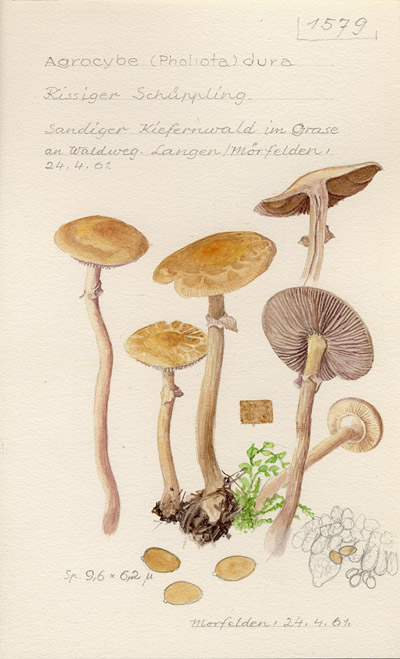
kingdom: Fungi
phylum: Basidiomycota
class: Agaricomycetes
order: Agaricales
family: Strophariaceae
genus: Agrocybe
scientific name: Agrocybe dura
